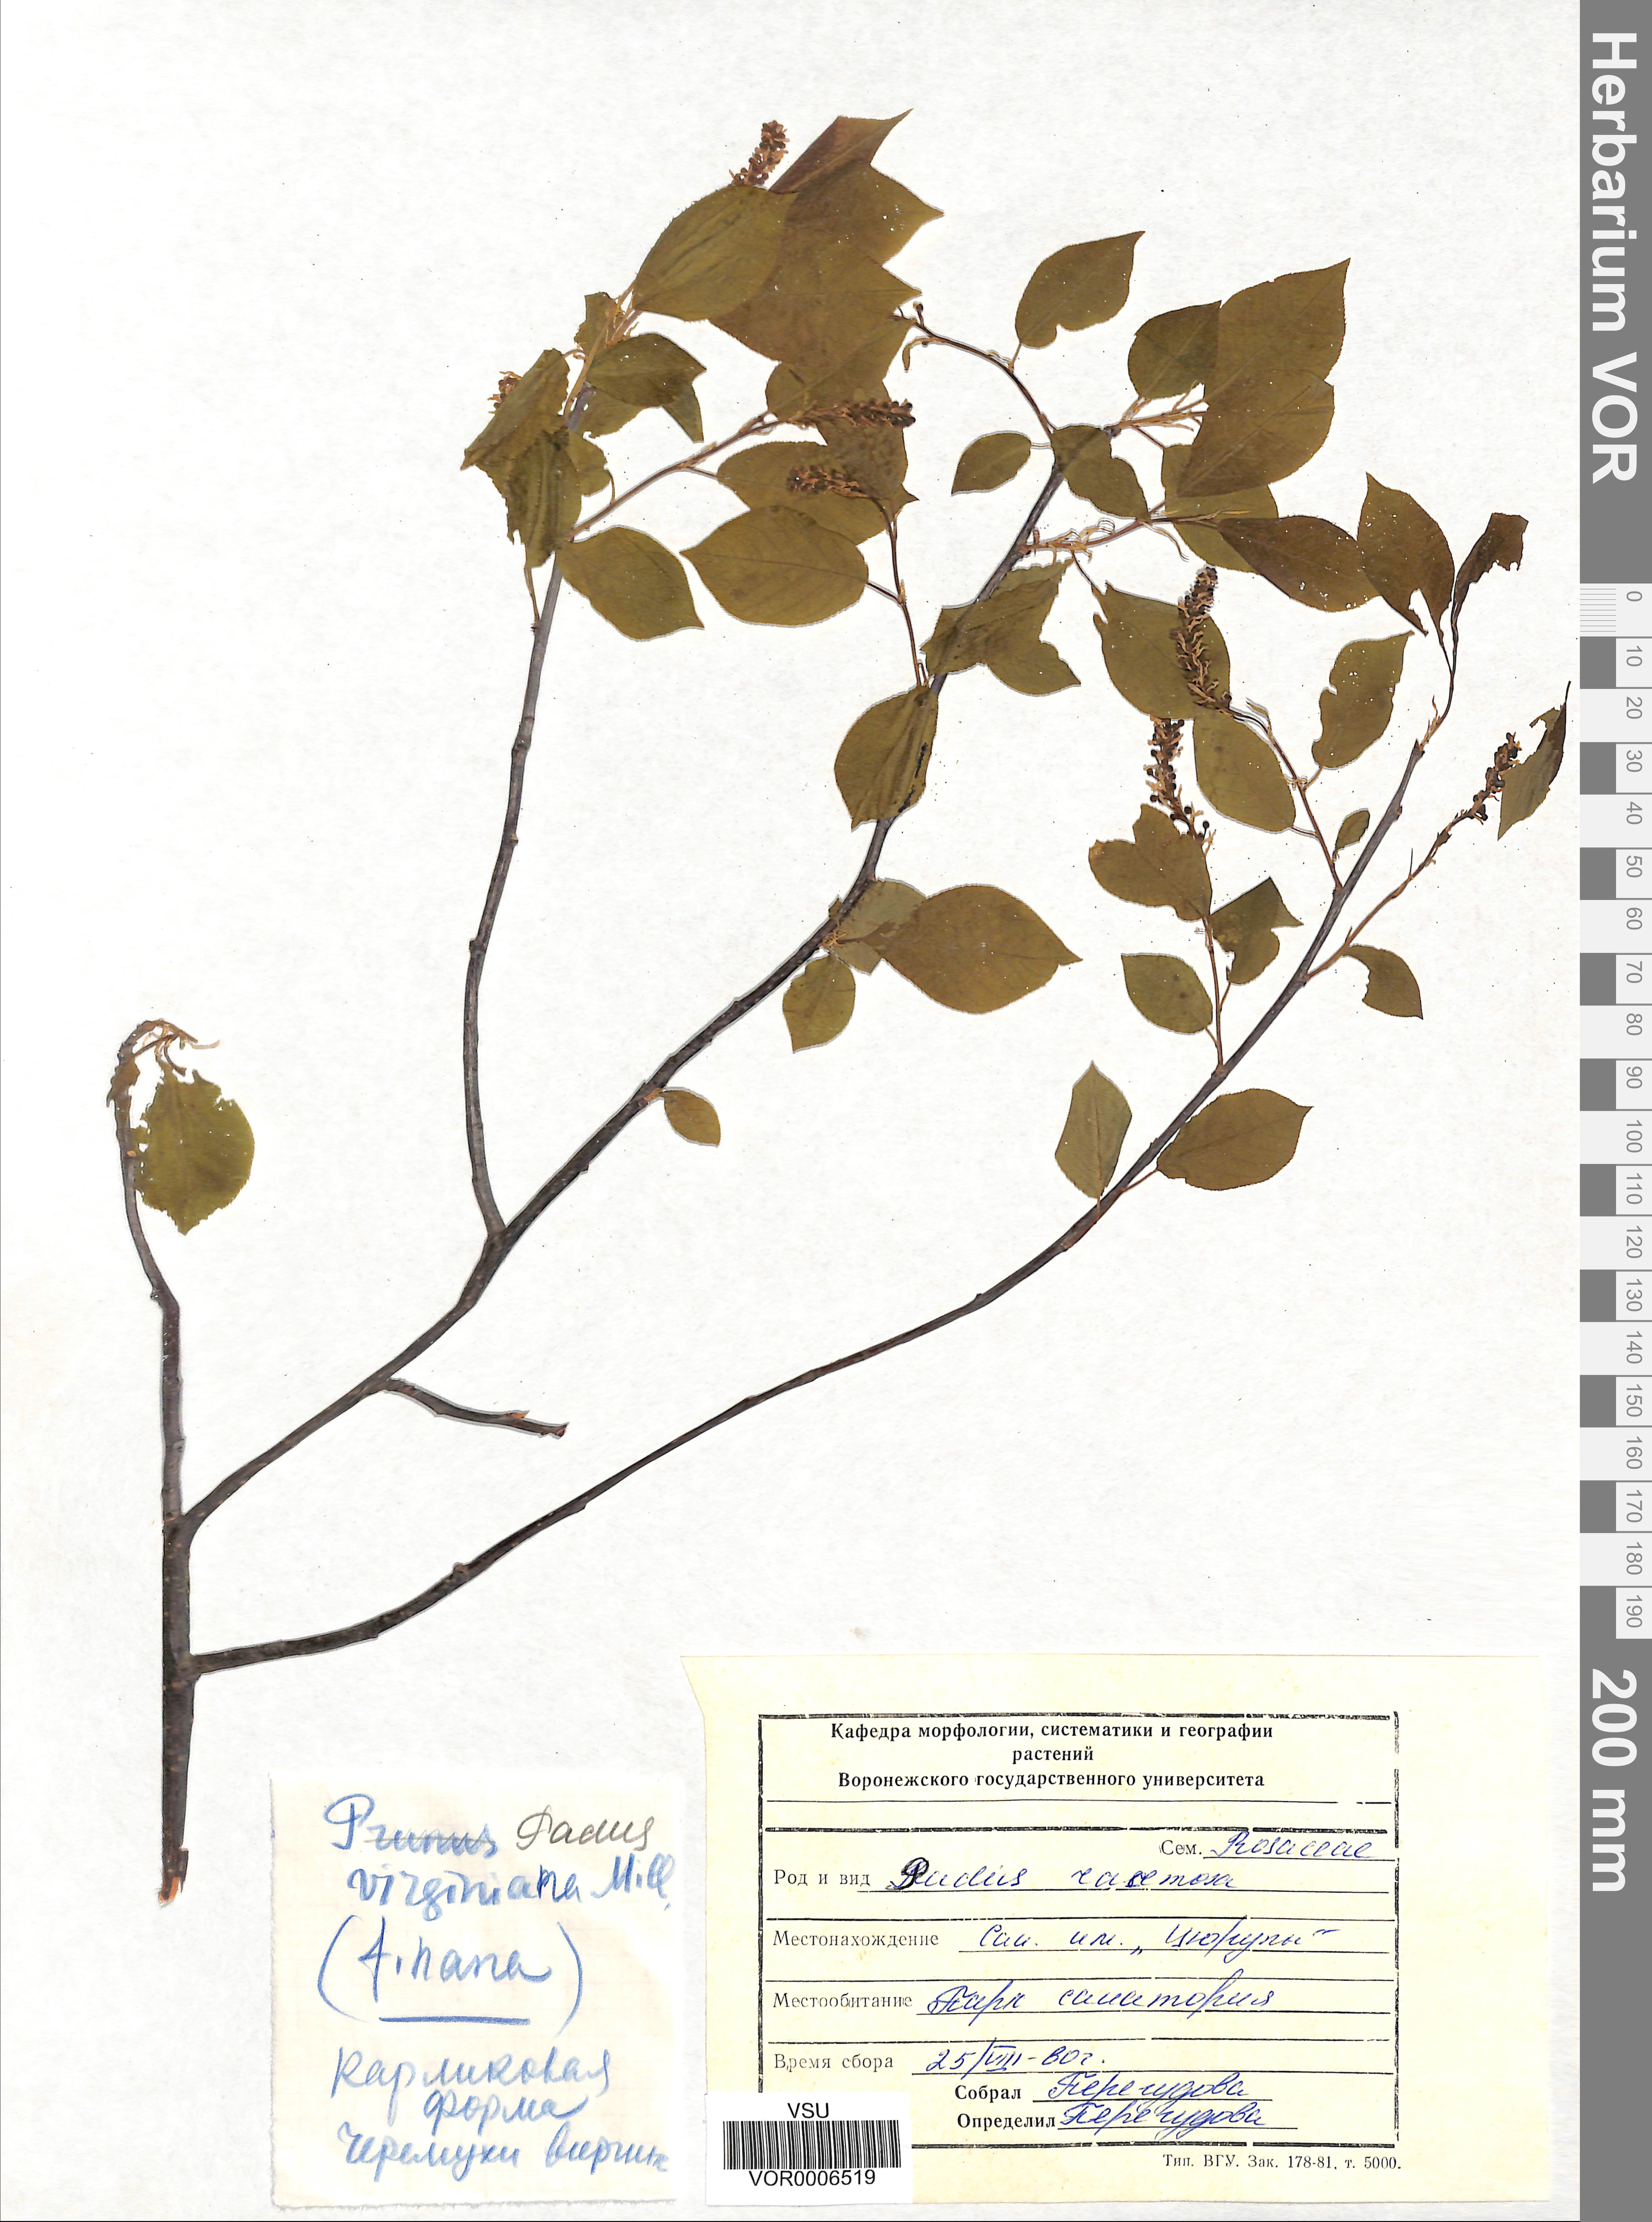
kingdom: Plantae
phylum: Tracheophyta
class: Magnoliopsida
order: Rosales
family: Rosaceae
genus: Prunus
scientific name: Prunus padus
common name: Bird cherry
